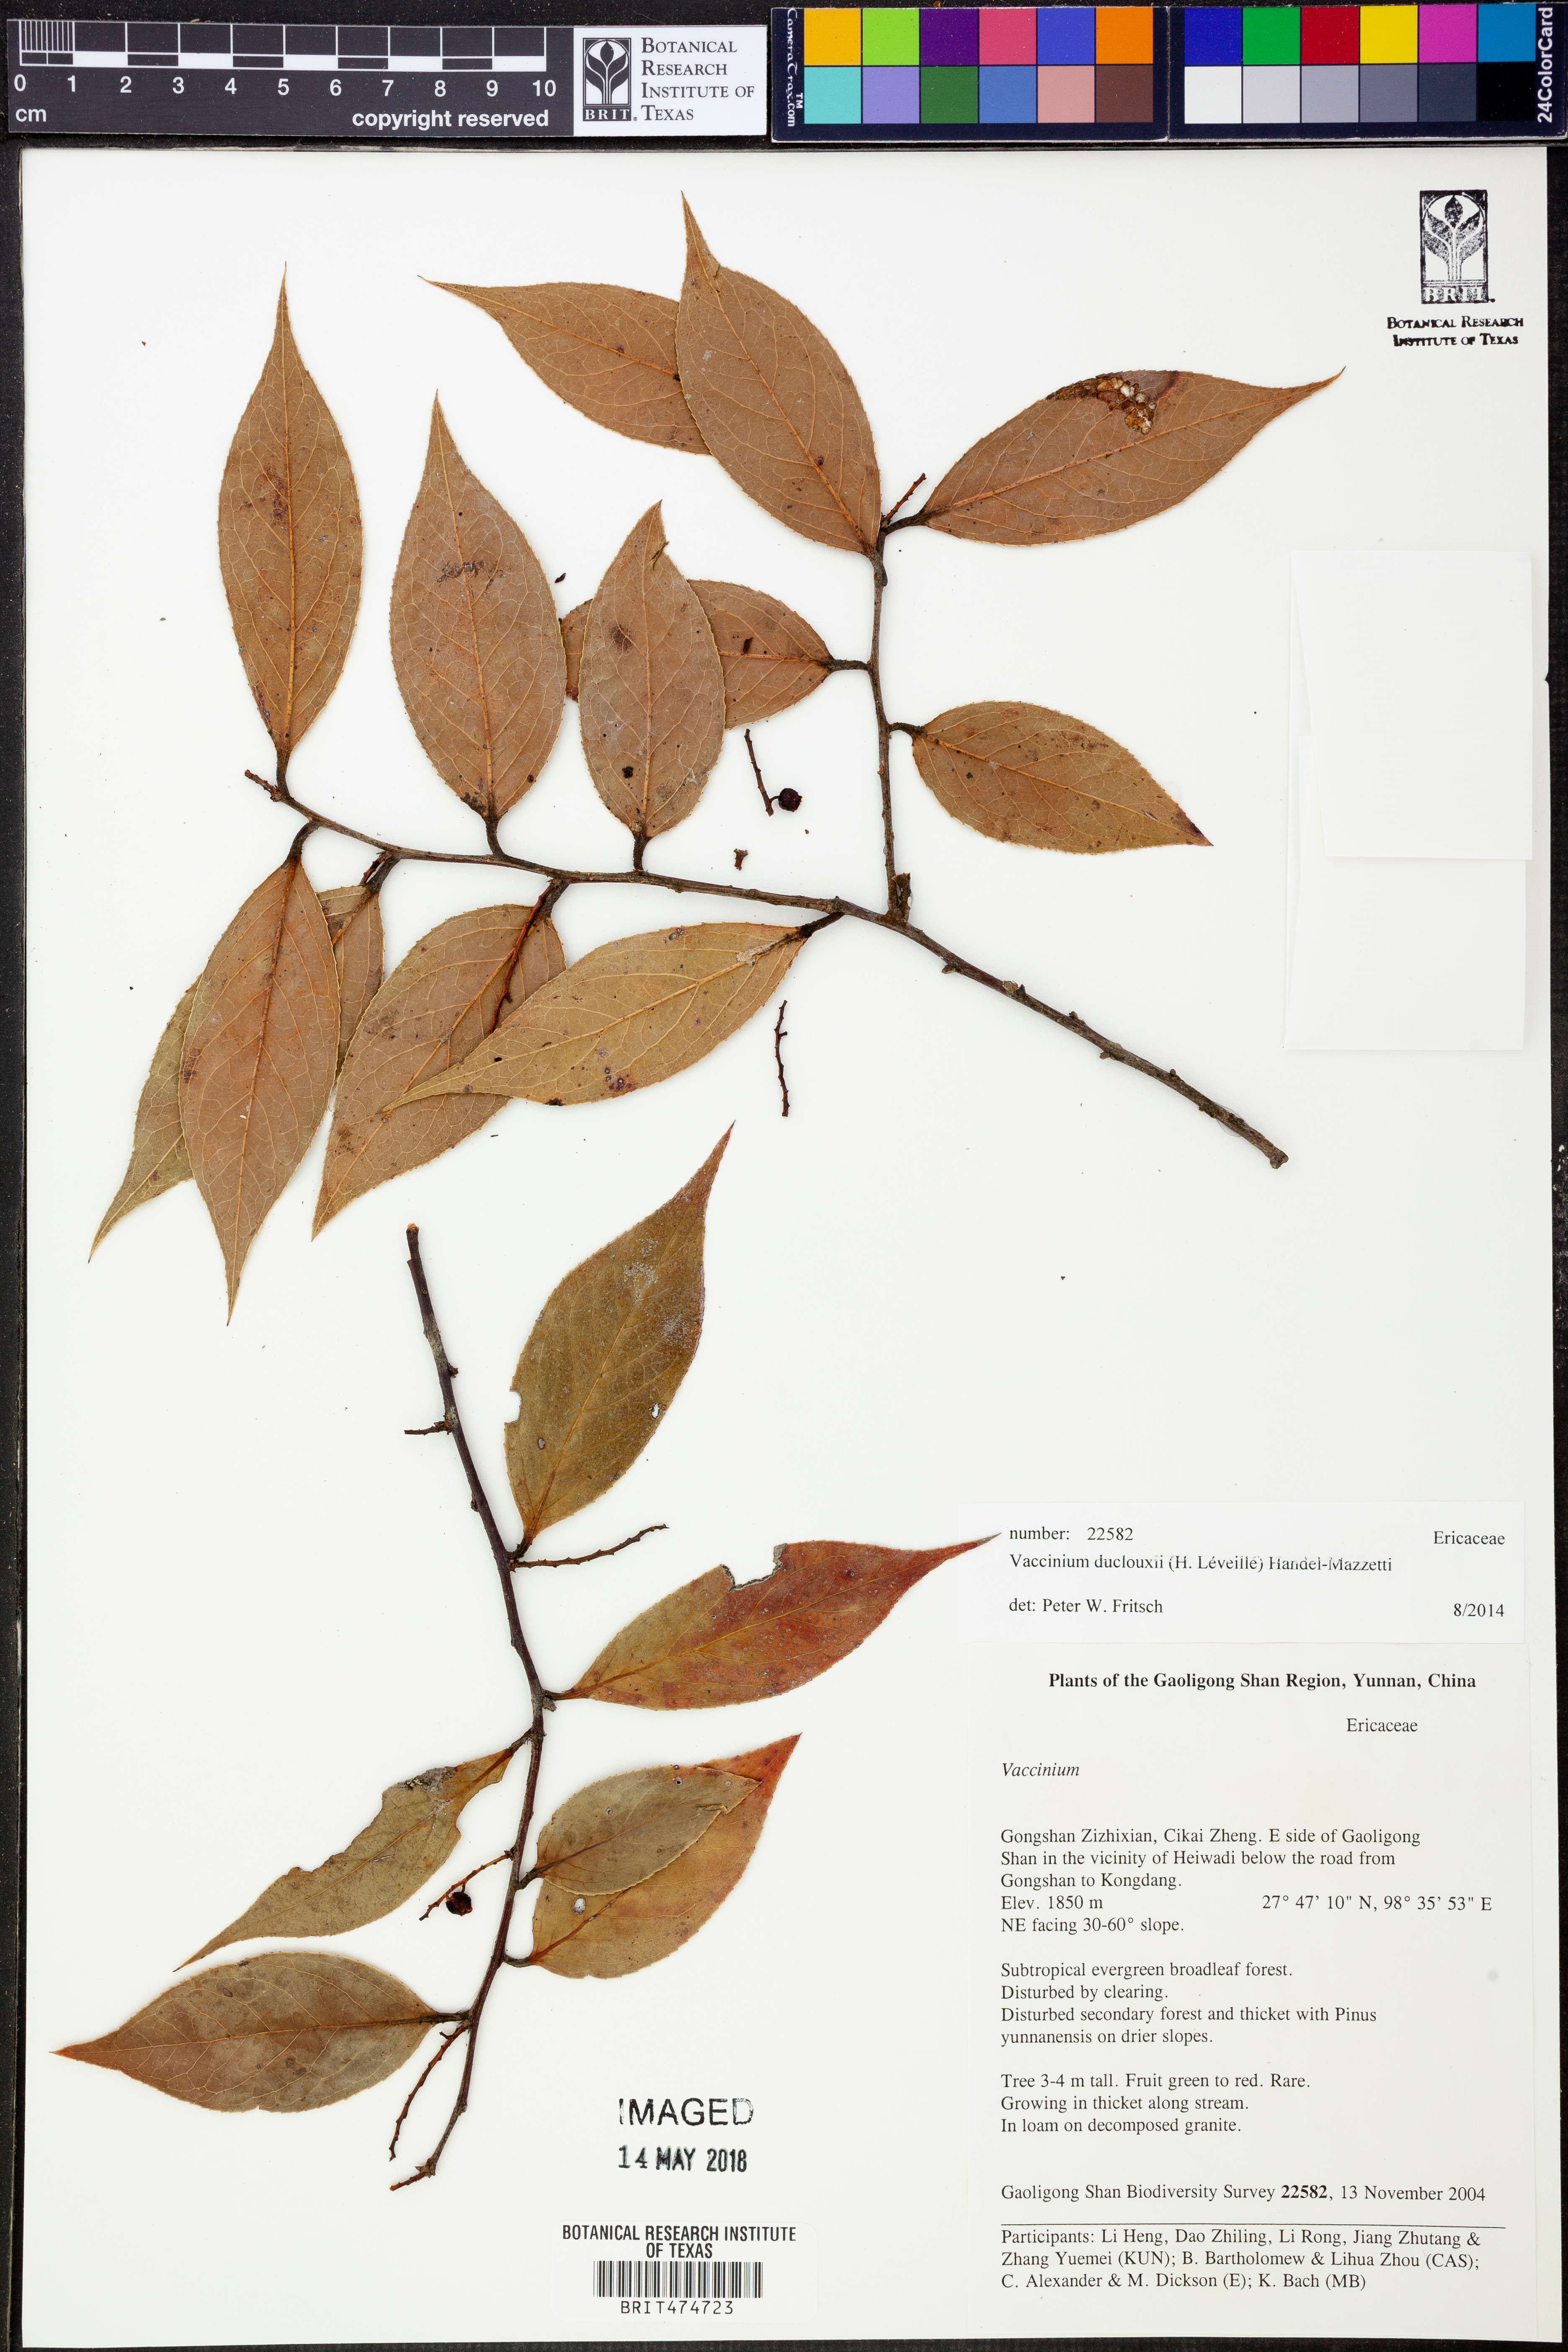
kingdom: Plantae
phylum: Tracheophyta
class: Magnoliopsida
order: Ericales
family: Ericaceae
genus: Vaccinium
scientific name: Vaccinium duclouxii
